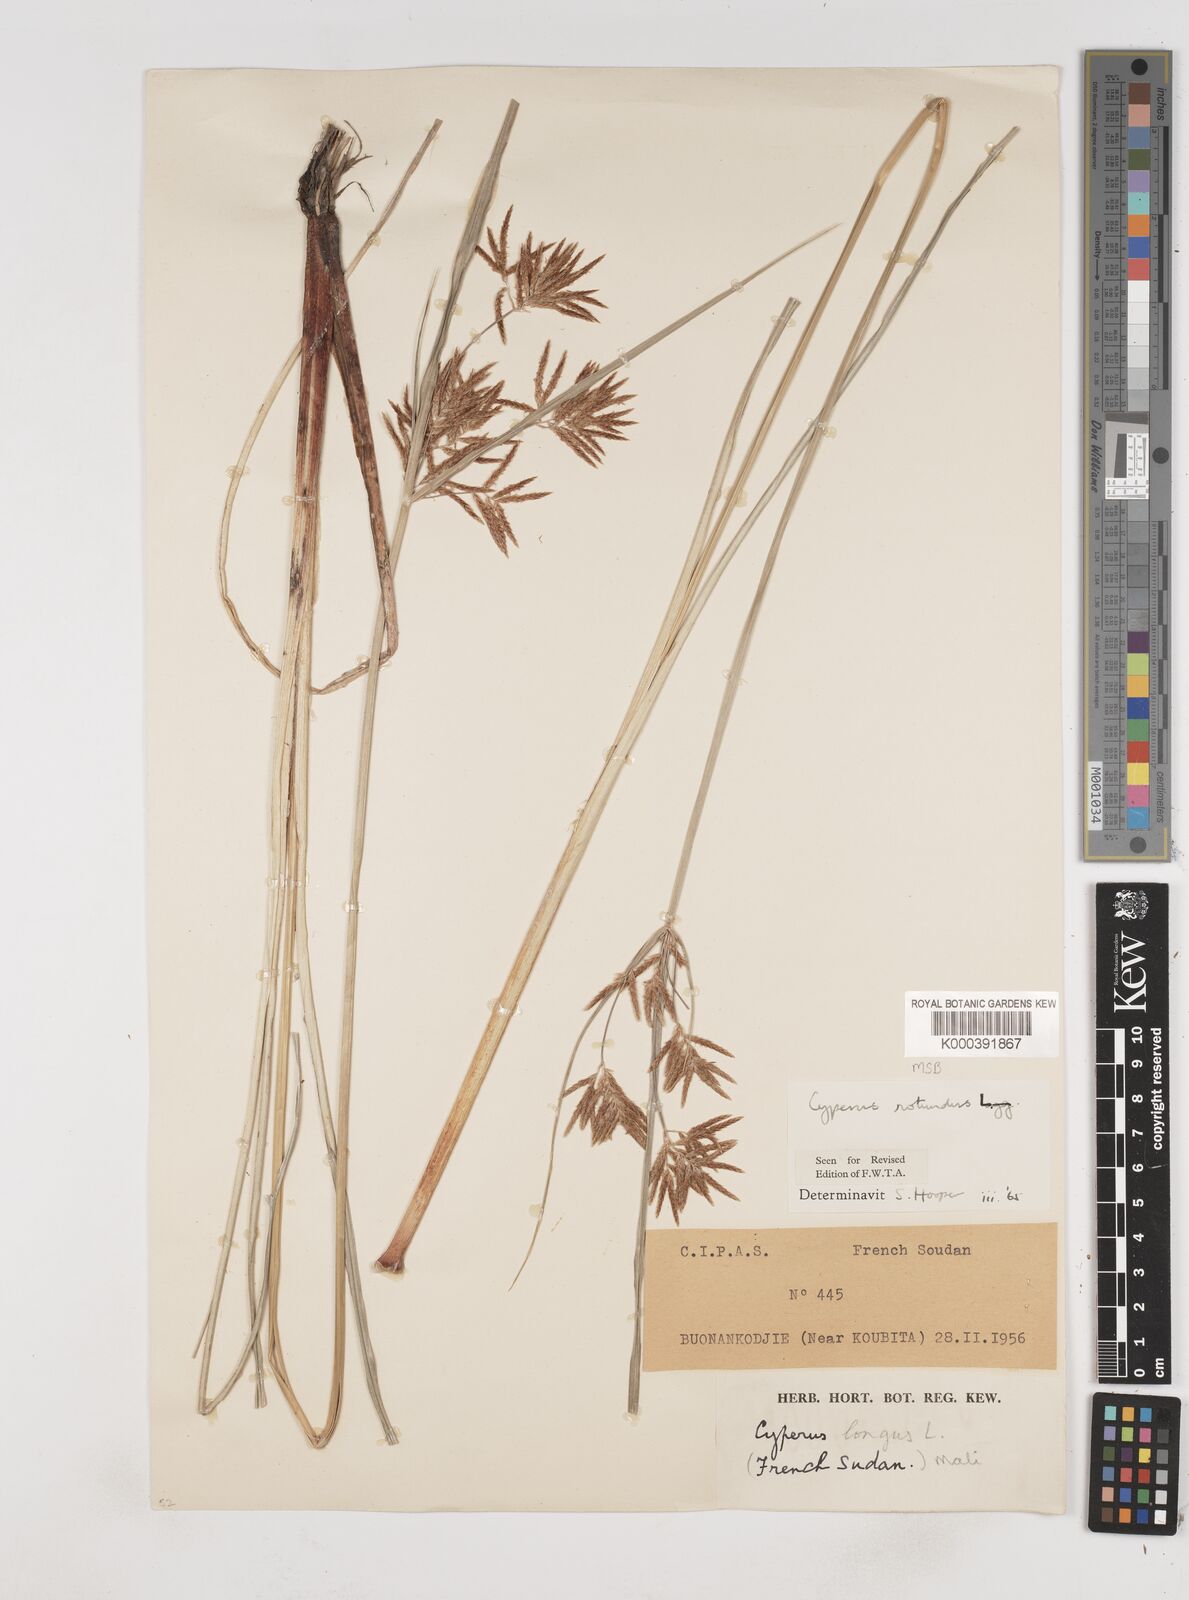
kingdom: Plantae
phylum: Tracheophyta
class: Liliopsida
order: Poales
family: Cyperaceae
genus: Cyperus
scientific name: Cyperus rotundus
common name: Nutgrass
